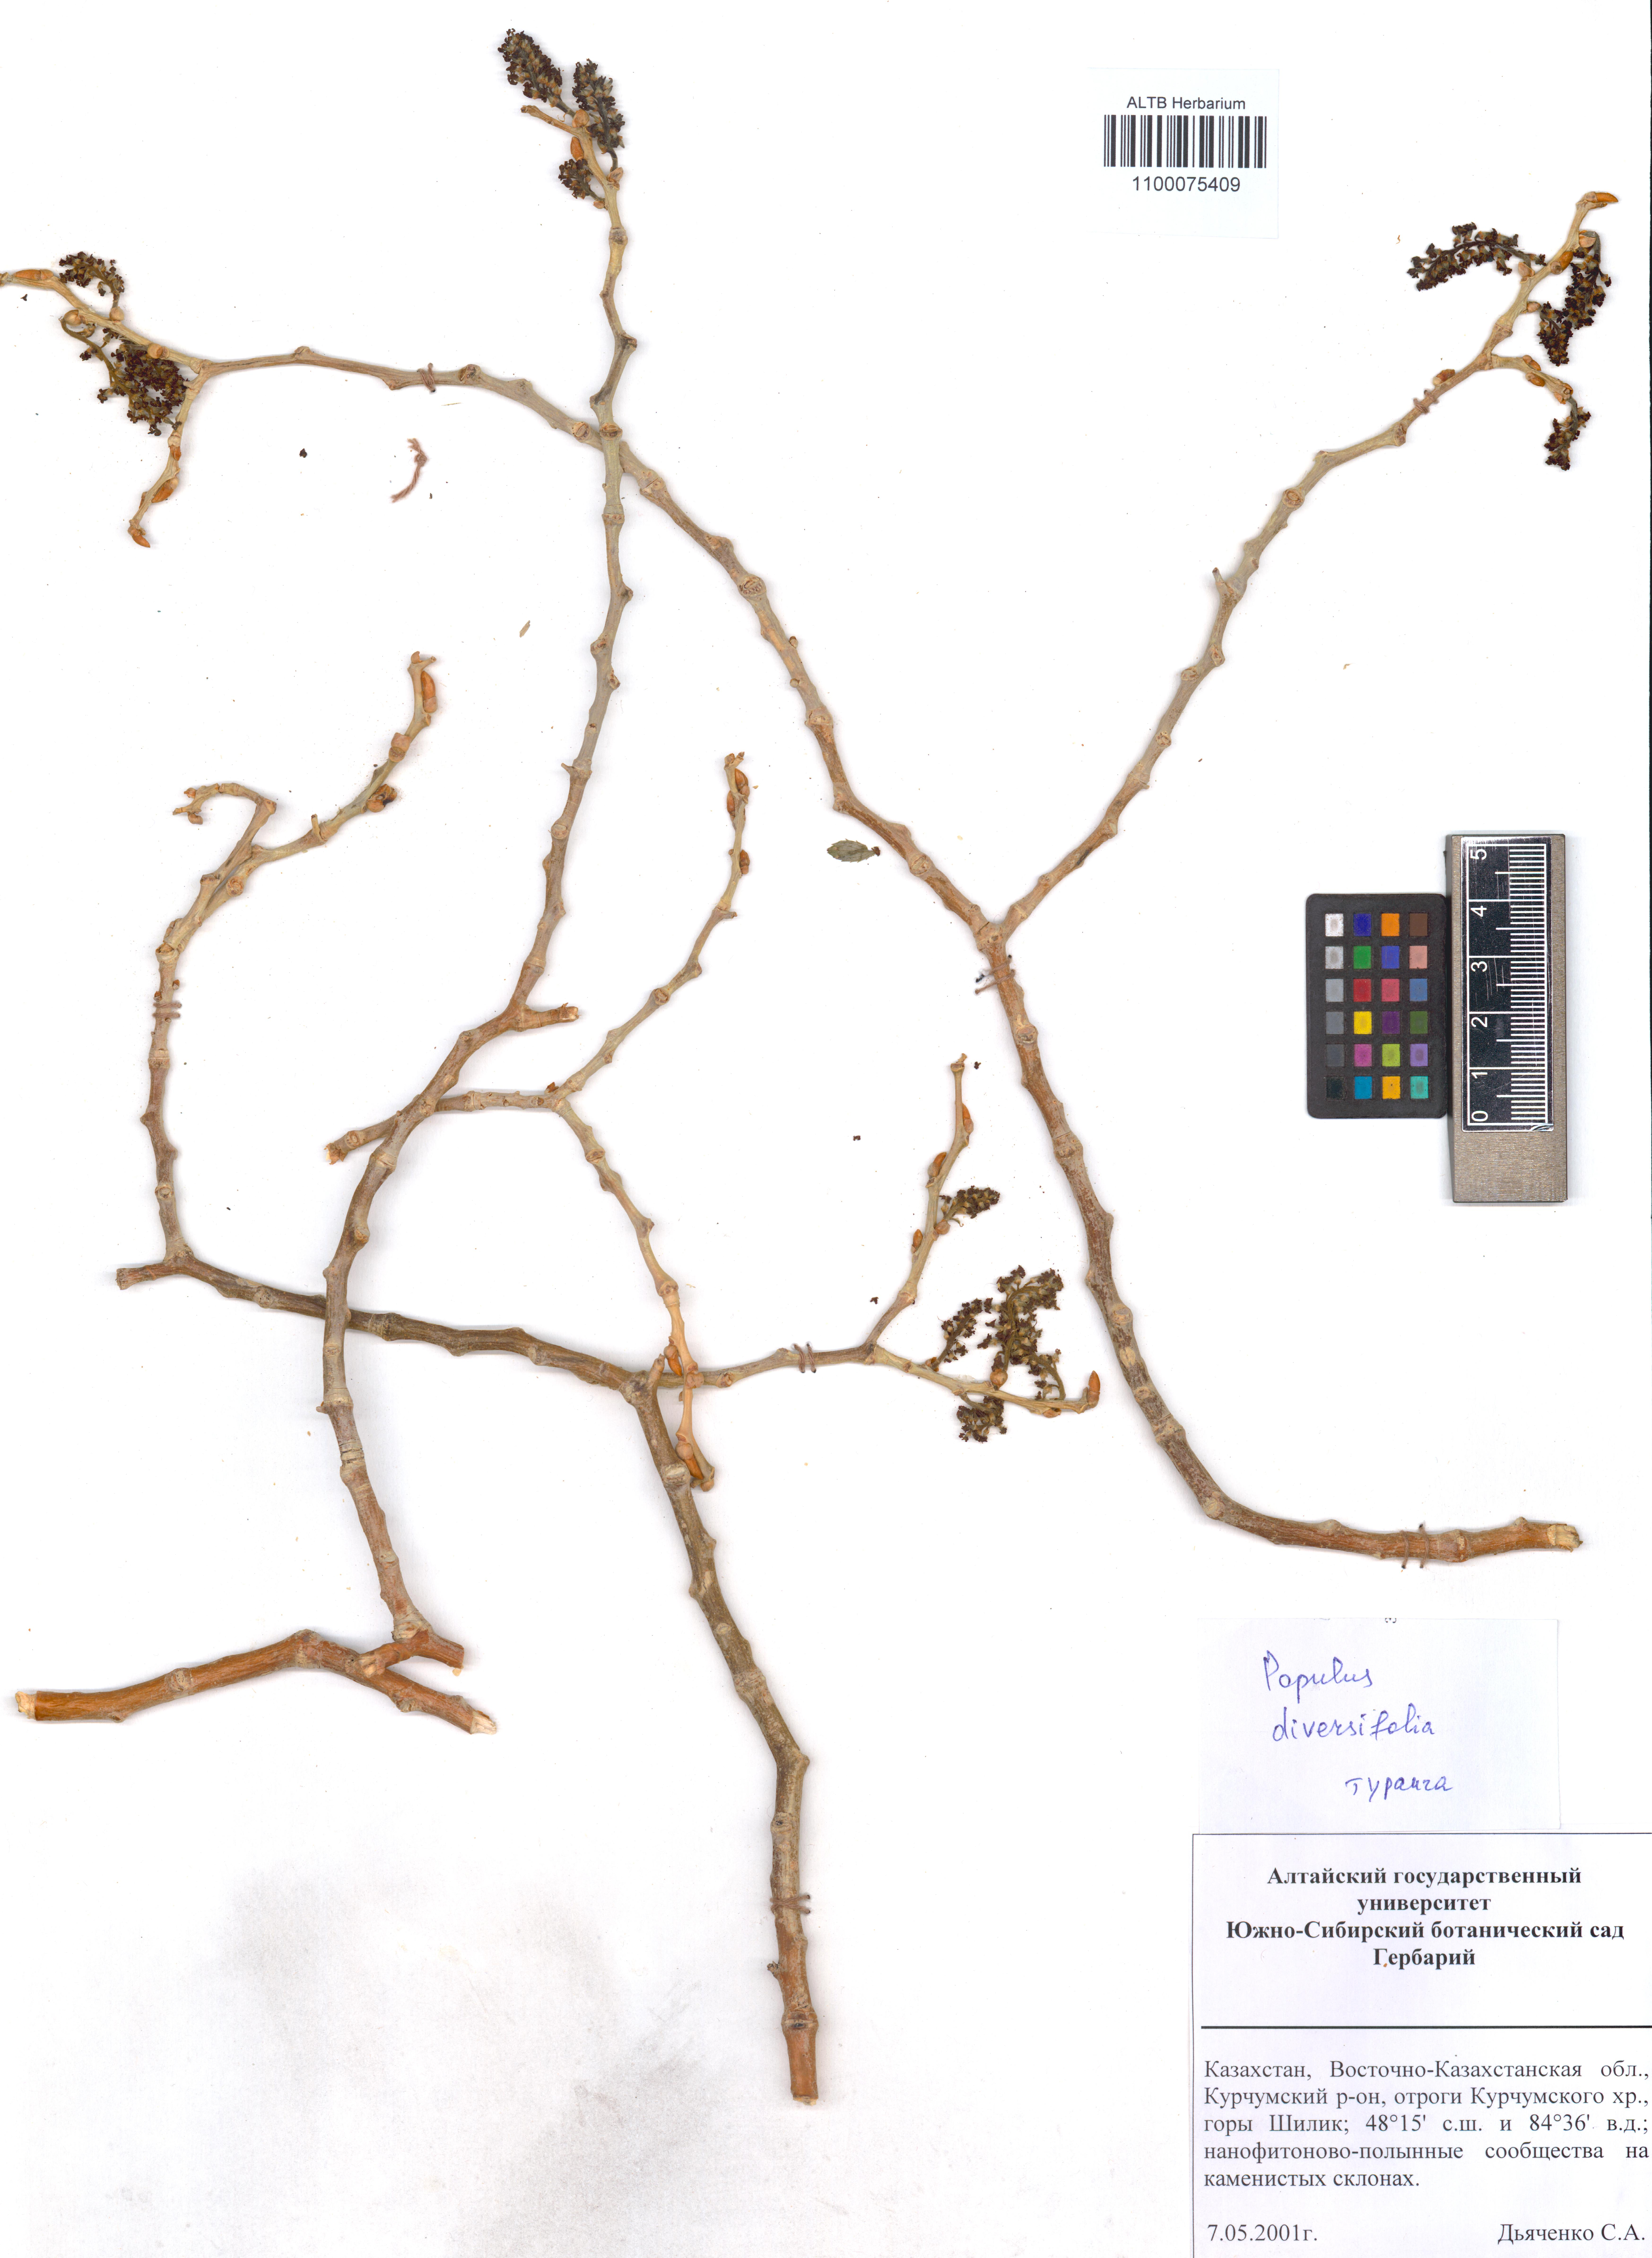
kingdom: Plantae
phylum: Tracheophyta
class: Magnoliopsida
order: Malpighiales
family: Salicaceae
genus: Populus
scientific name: Populus euphratica
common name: Euphrates poplar
